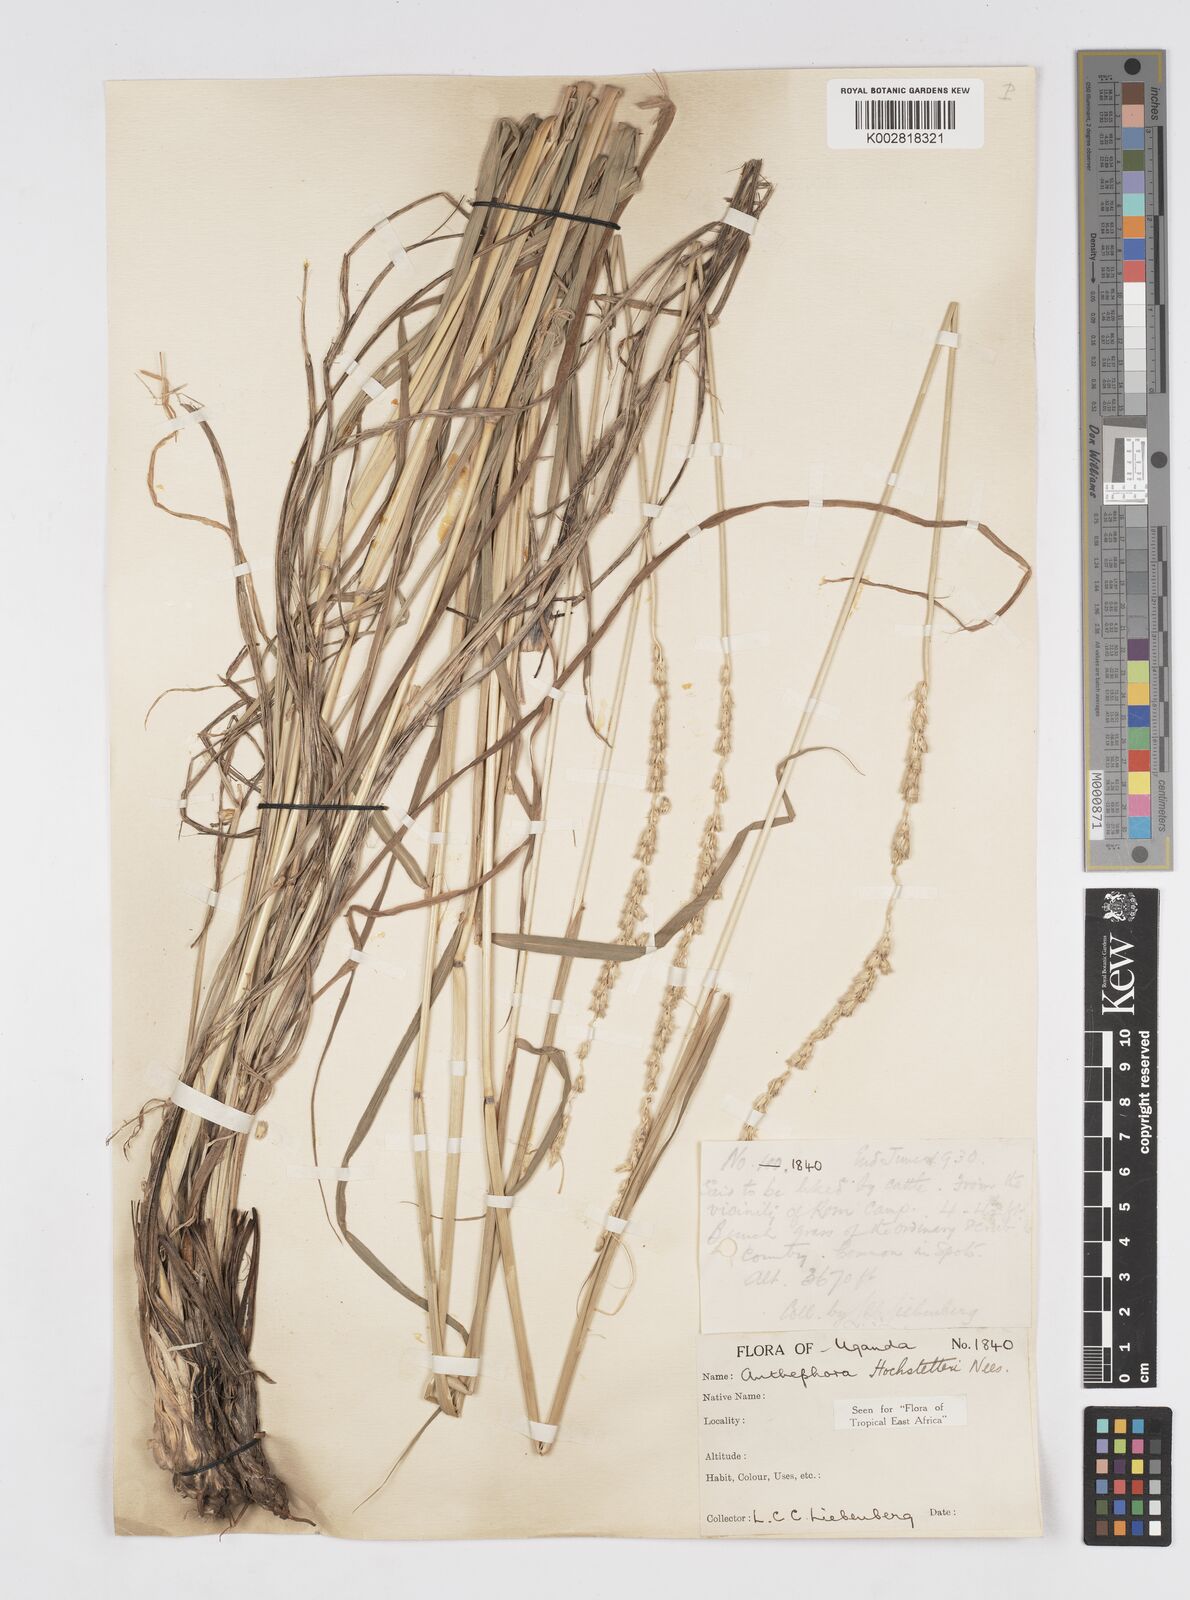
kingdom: Plantae
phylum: Tracheophyta
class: Liliopsida
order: Poales
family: Poaceae
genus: Anthephora
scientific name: Anthephora pubescens
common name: Wool grass
